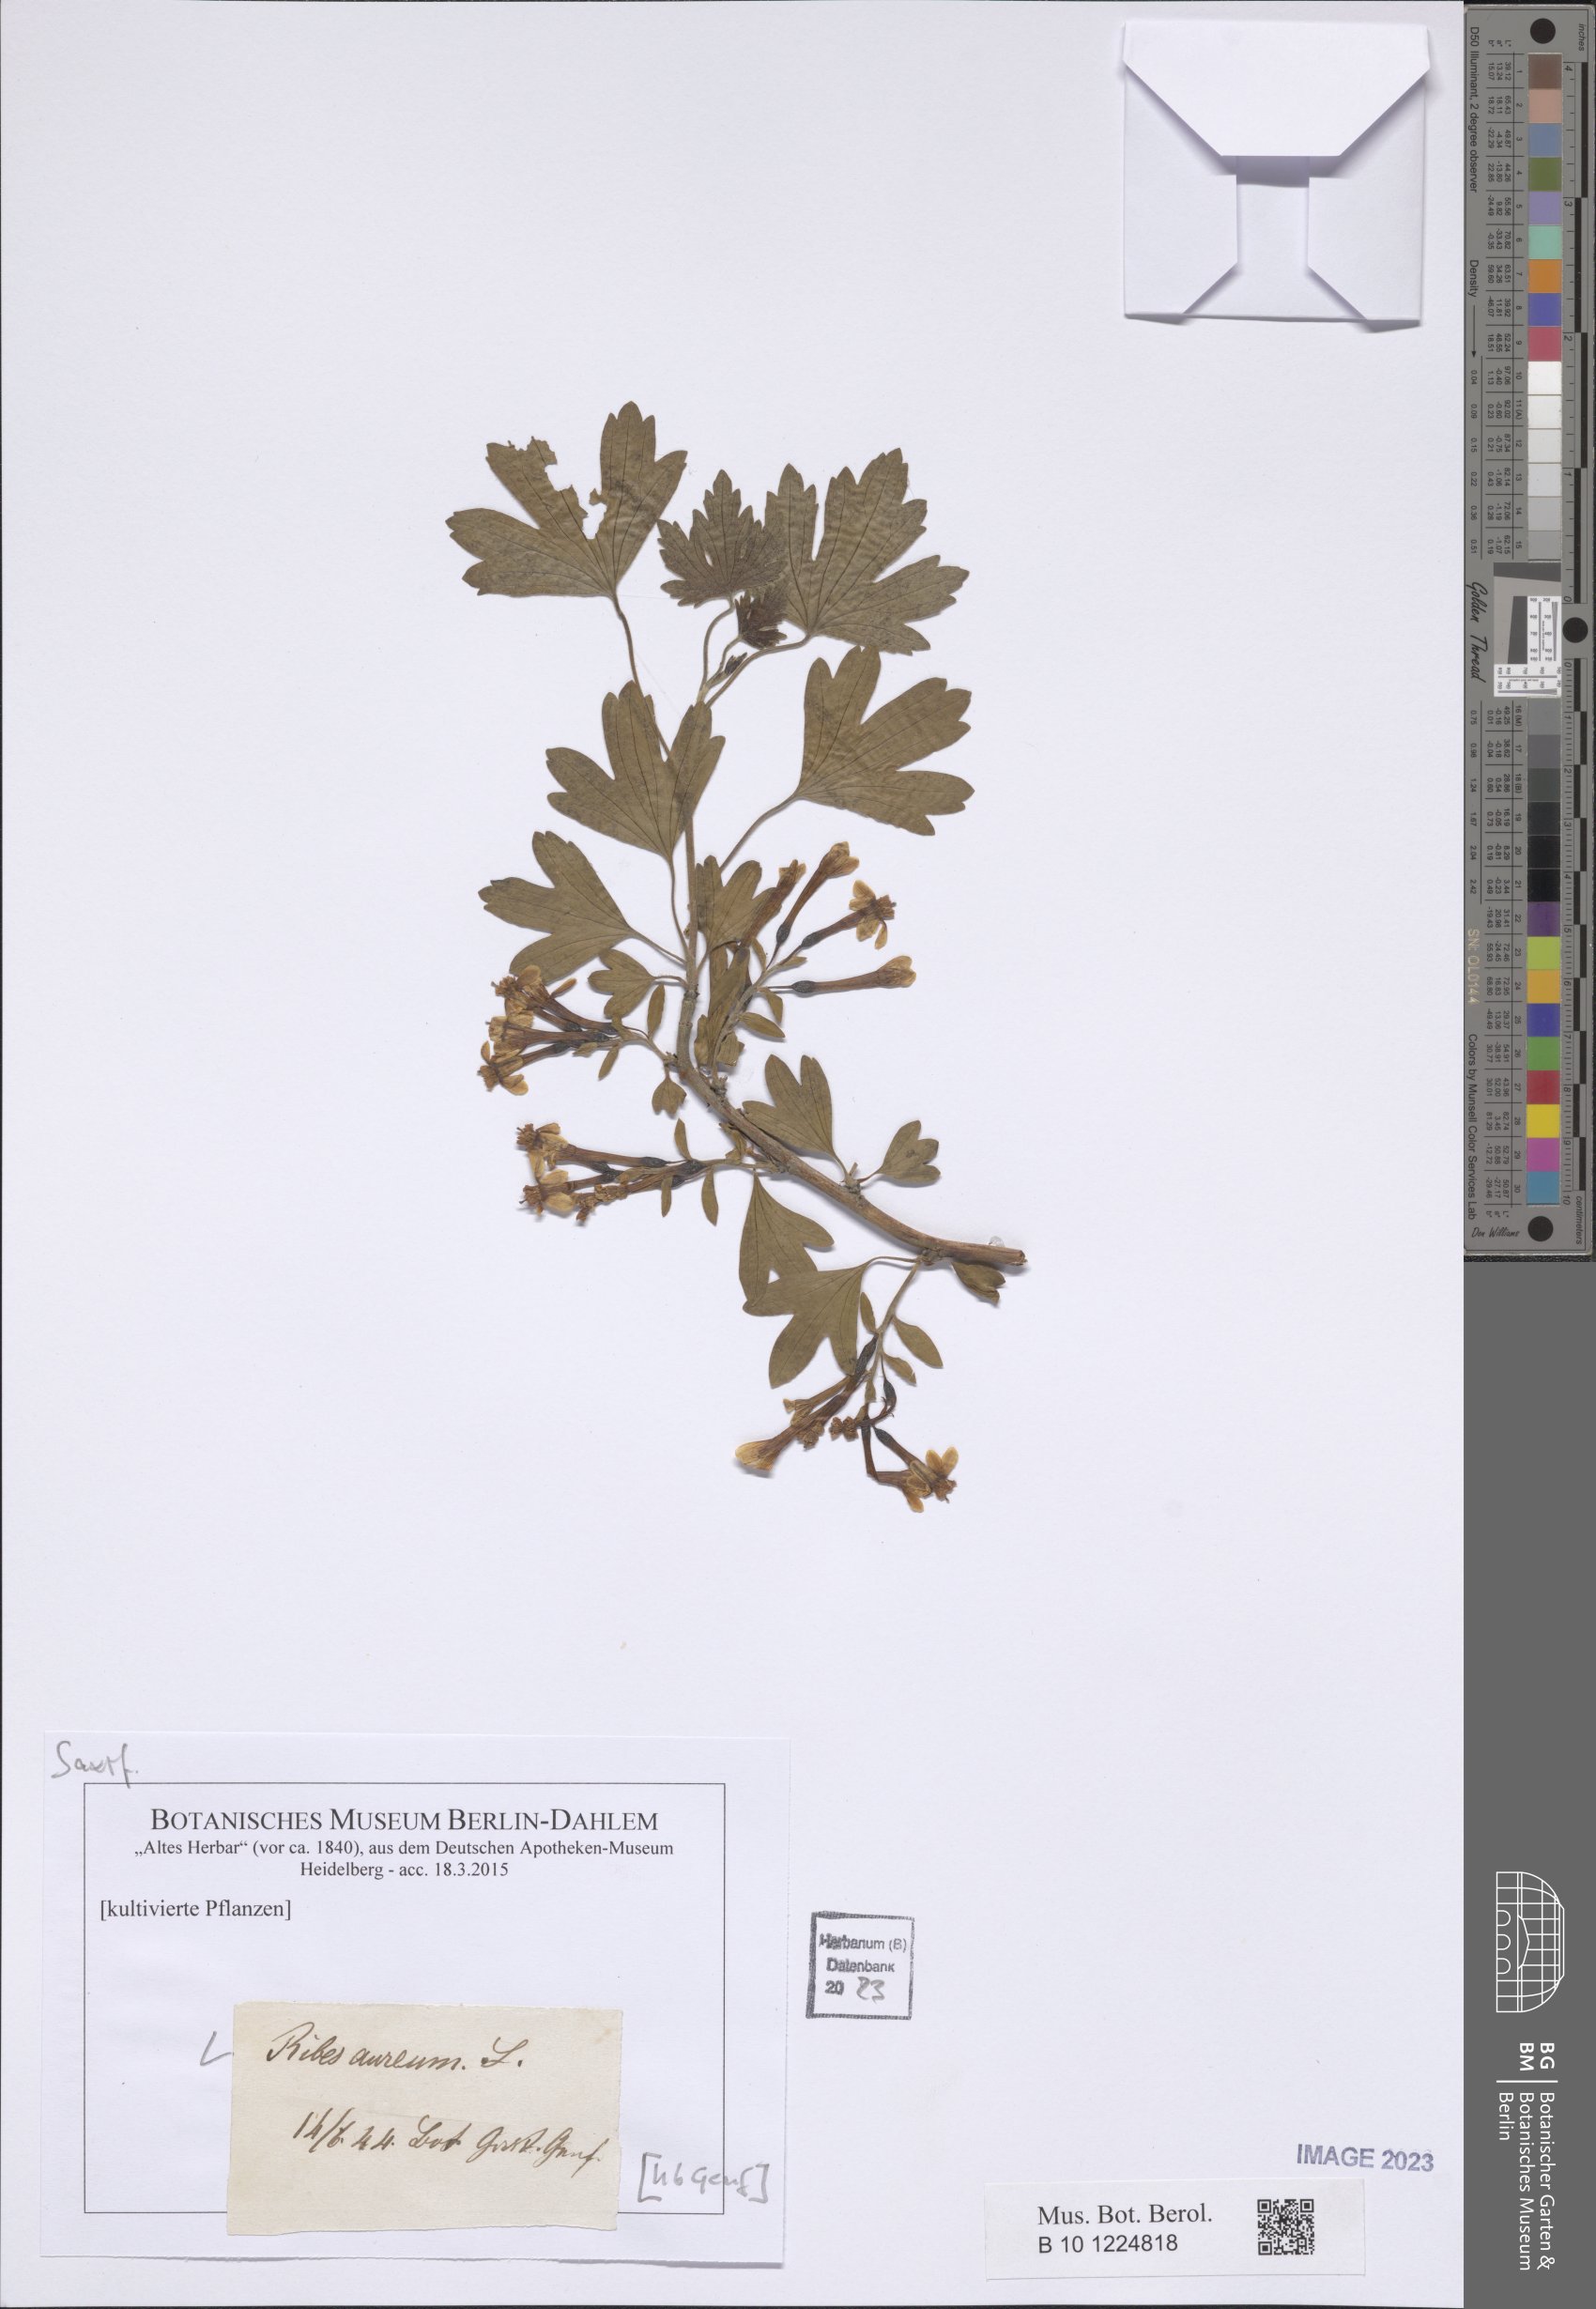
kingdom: Plantae
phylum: Tracheophyta
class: Magnoliopsida
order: Saxifragales
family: Grossulariaceae
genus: Ribes
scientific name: Ribes aureum
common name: Golden currant
